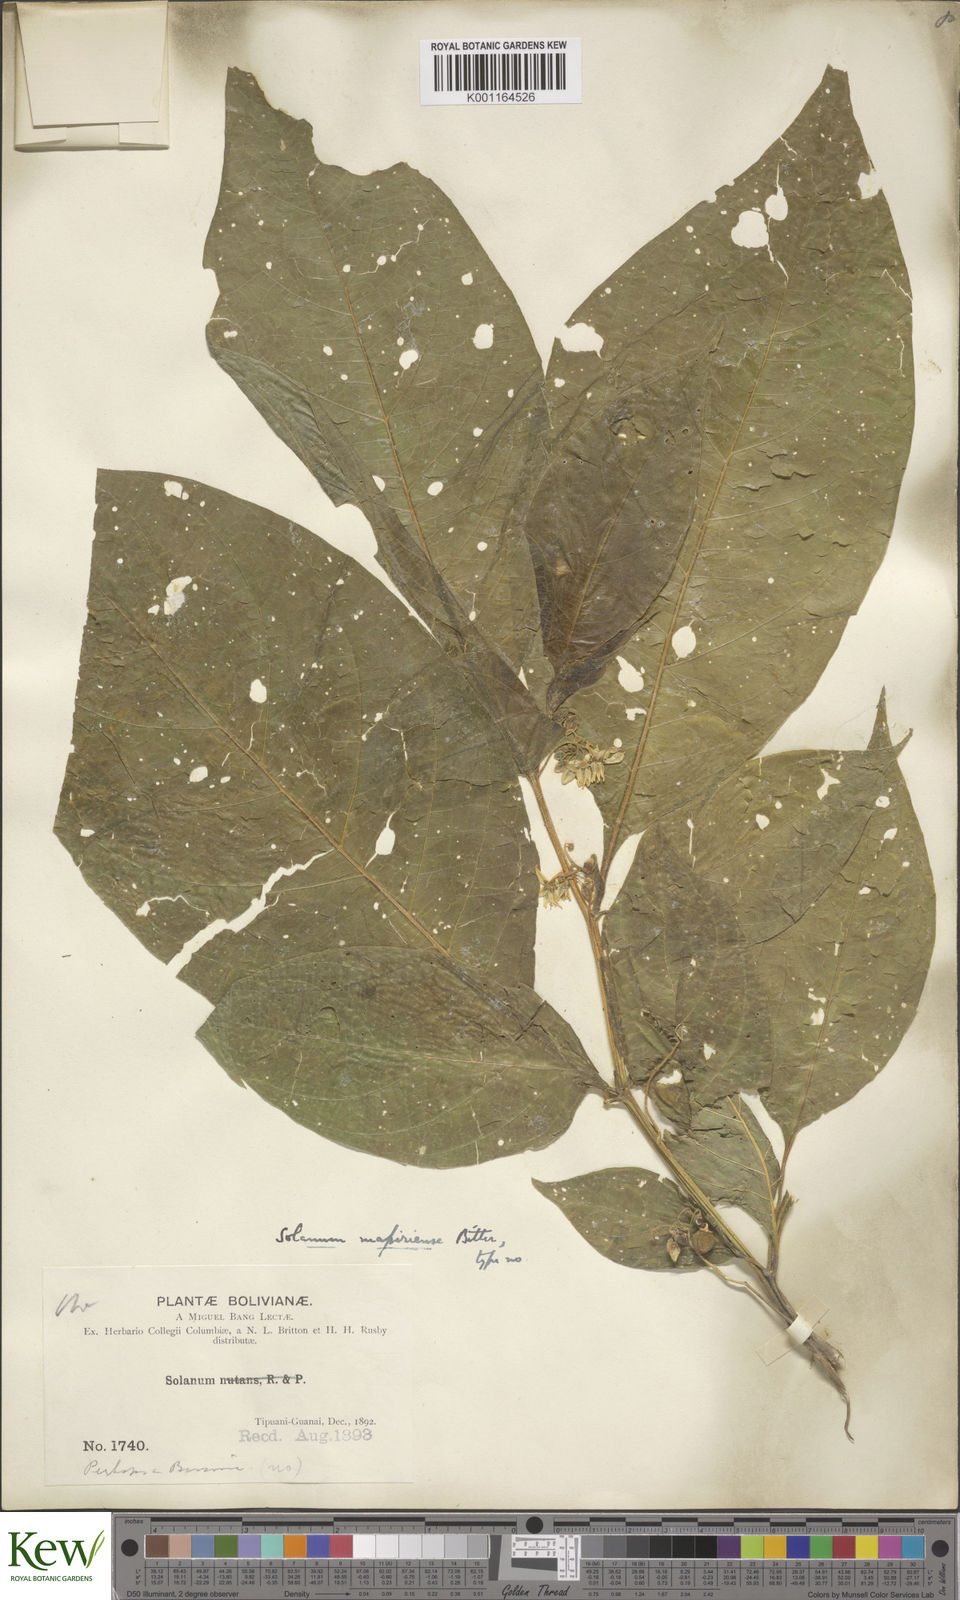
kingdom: Plantae
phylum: Tracheophyta
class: Magnoliopsida
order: Solanales
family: Solanaceae
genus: Solanum
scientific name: Solanum mapiriense
